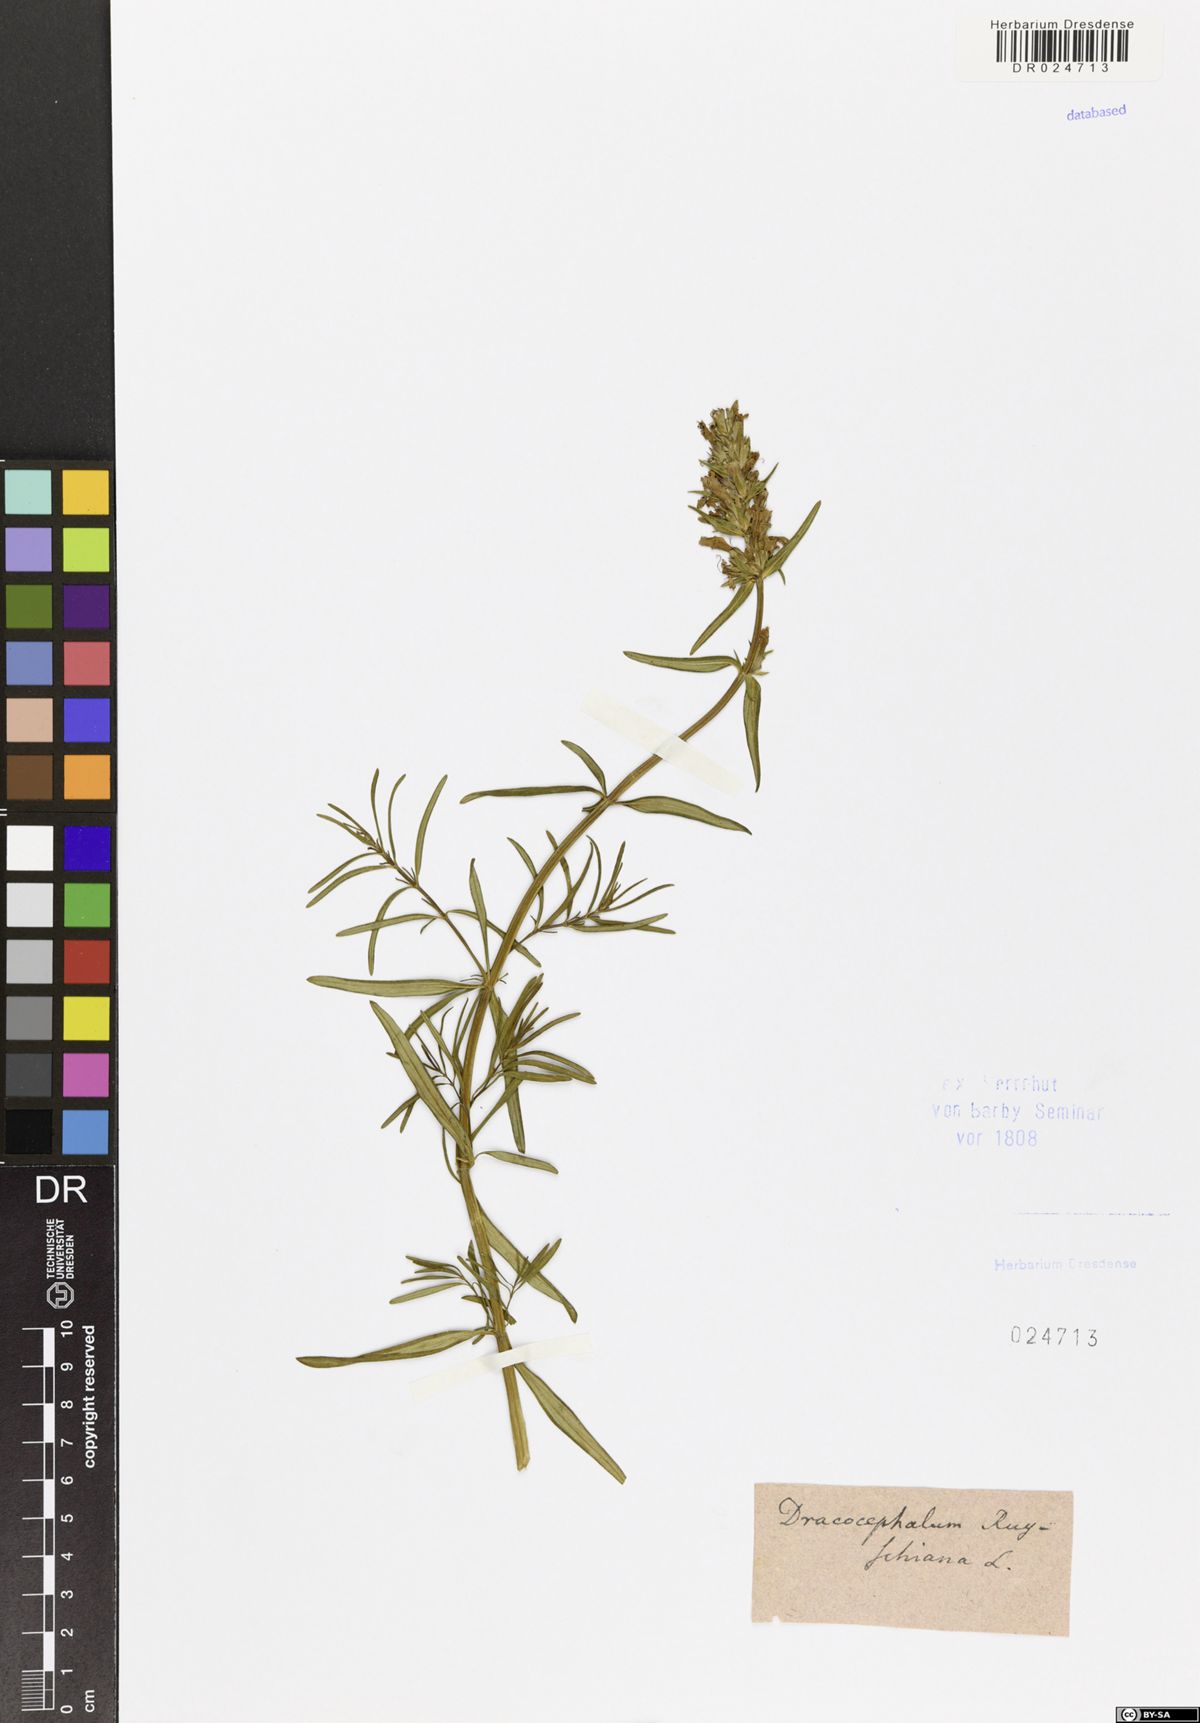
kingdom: Plantae
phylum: Tracheophyta
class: Magnoliopsida
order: Lamiales
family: Lamiaceae
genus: Dracocephalum
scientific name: Dracocephalum ruyschiana
